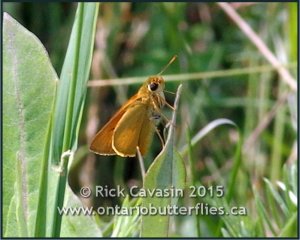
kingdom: Animalia
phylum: Arthropoda
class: Insecta
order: Lepidoptera
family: Hesperiidae
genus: Atrytone
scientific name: Atrytone delaware
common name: Delaware Skipper
